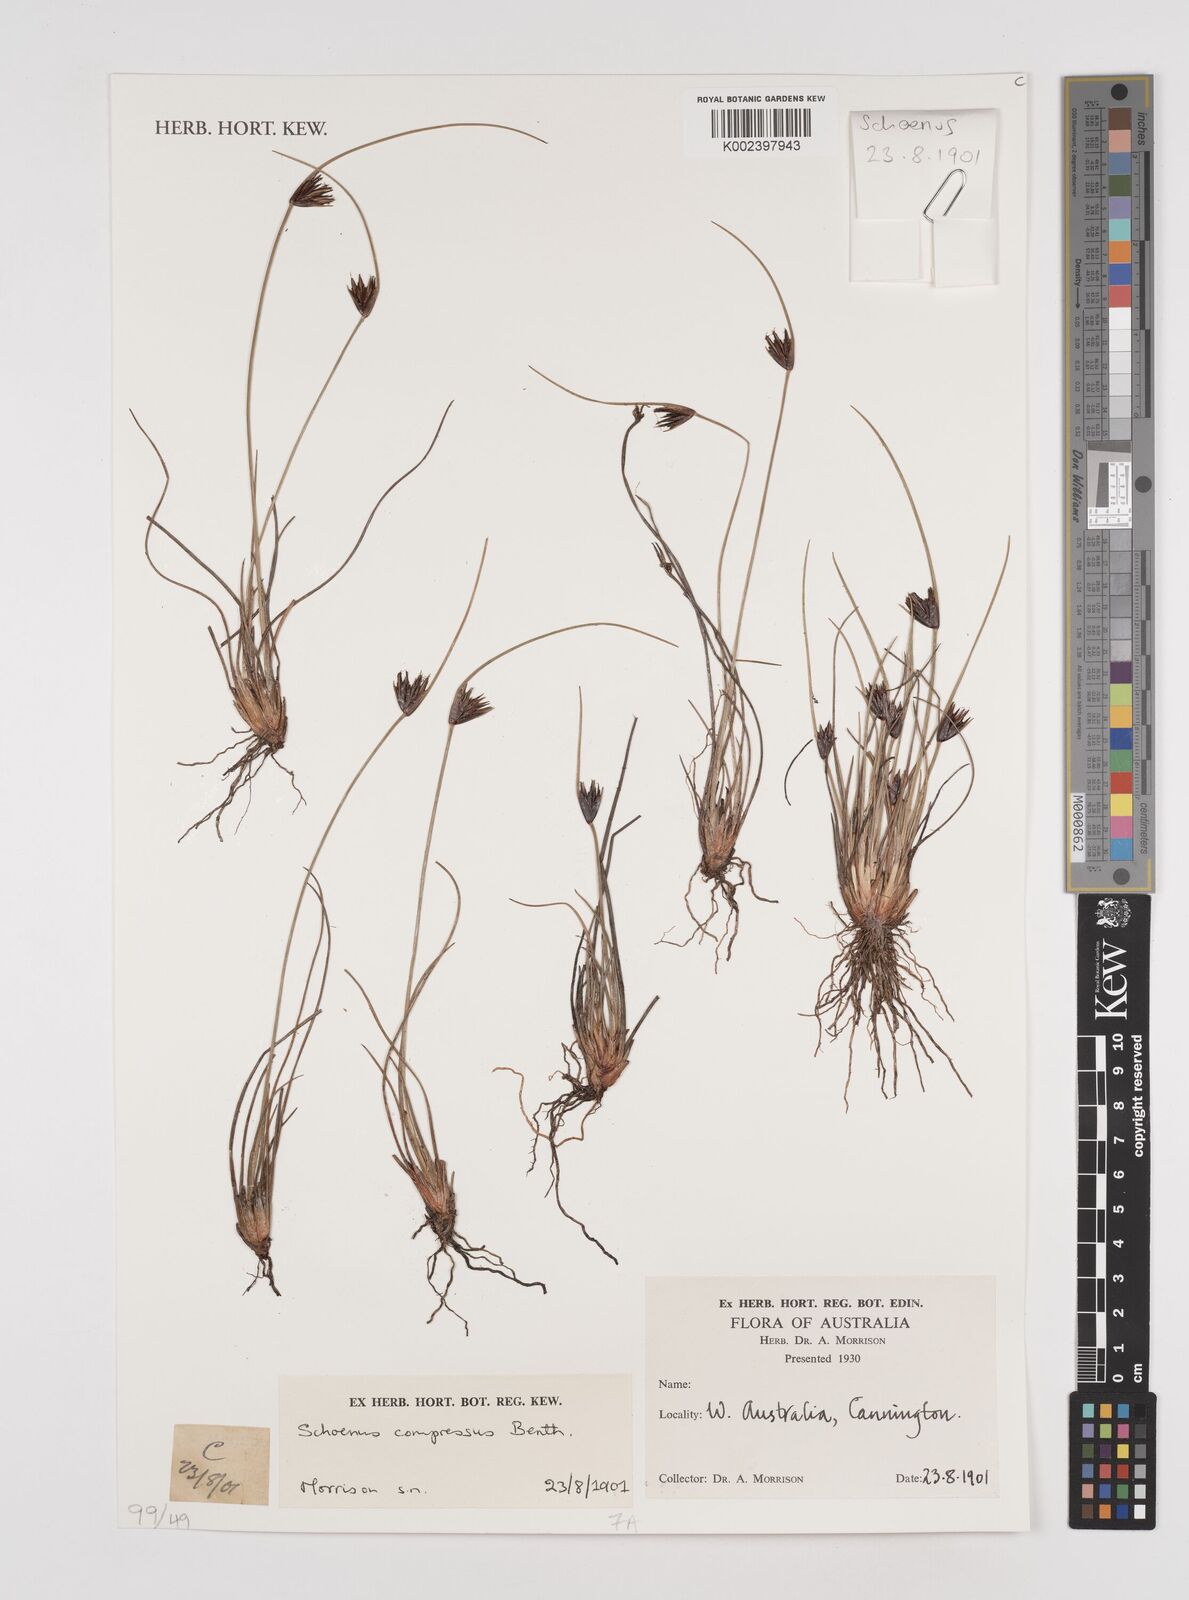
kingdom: Plantae
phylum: Tracheophyta
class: Liliopsida
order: Poales
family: Cyperaceae
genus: Schoenus
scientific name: Schoenus benthamii
